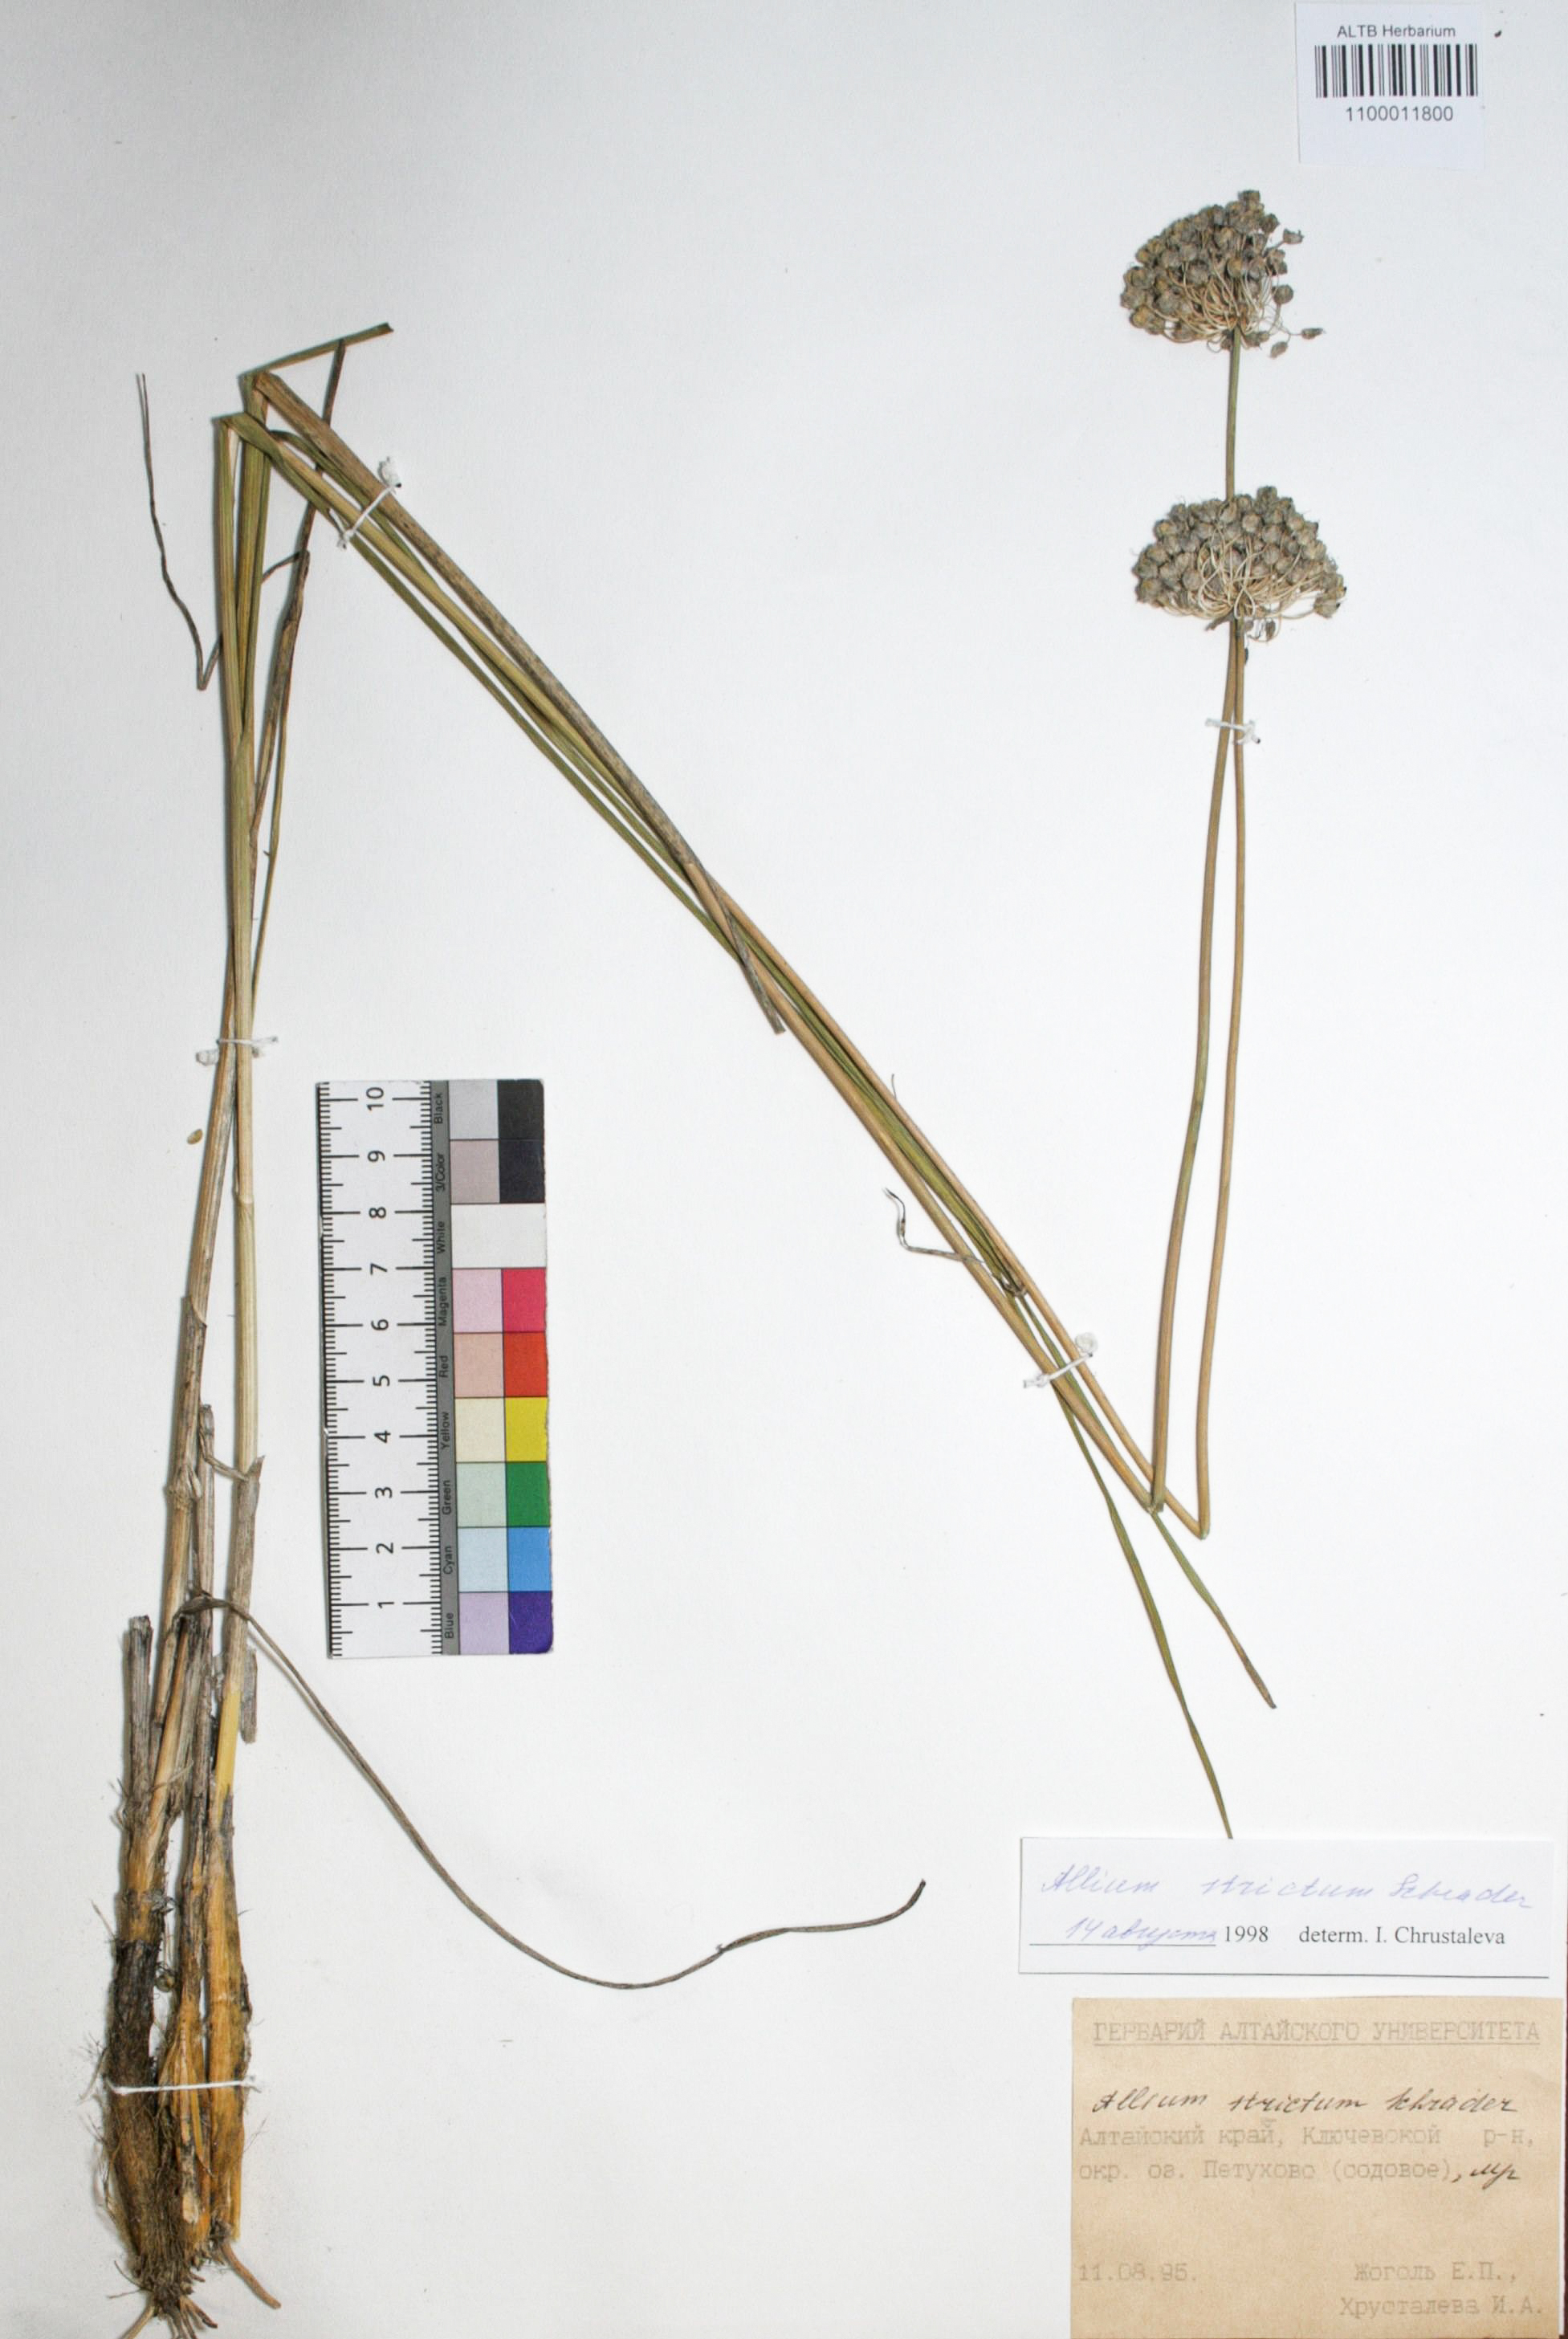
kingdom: Plantae
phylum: Tracheophyta
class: Liliopsida
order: Asparagales
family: Amaryllidaceae
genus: Allium
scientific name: Allium strictum
